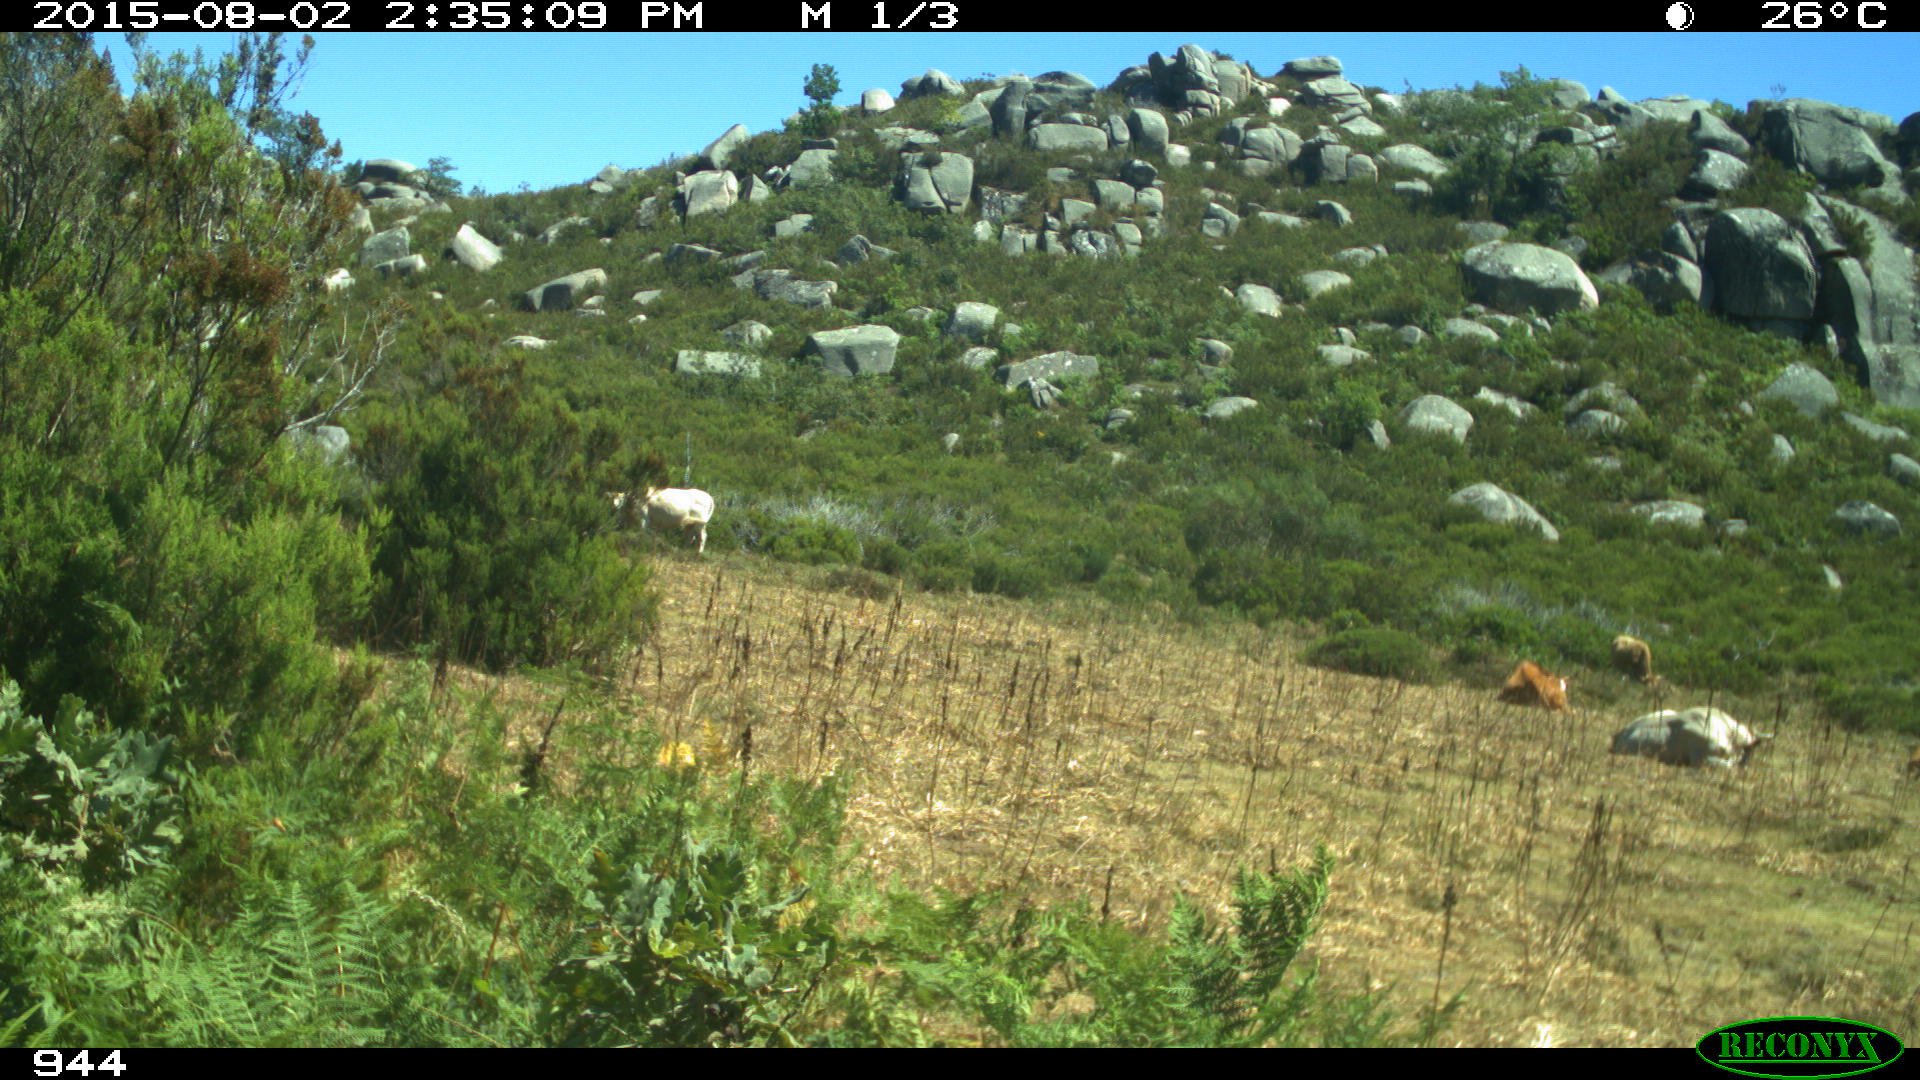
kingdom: Animalia
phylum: Chordata
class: Mammalia
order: Artiodactyla
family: Bovidae
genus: Bos
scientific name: Bos taurus
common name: Domesticated cattle
